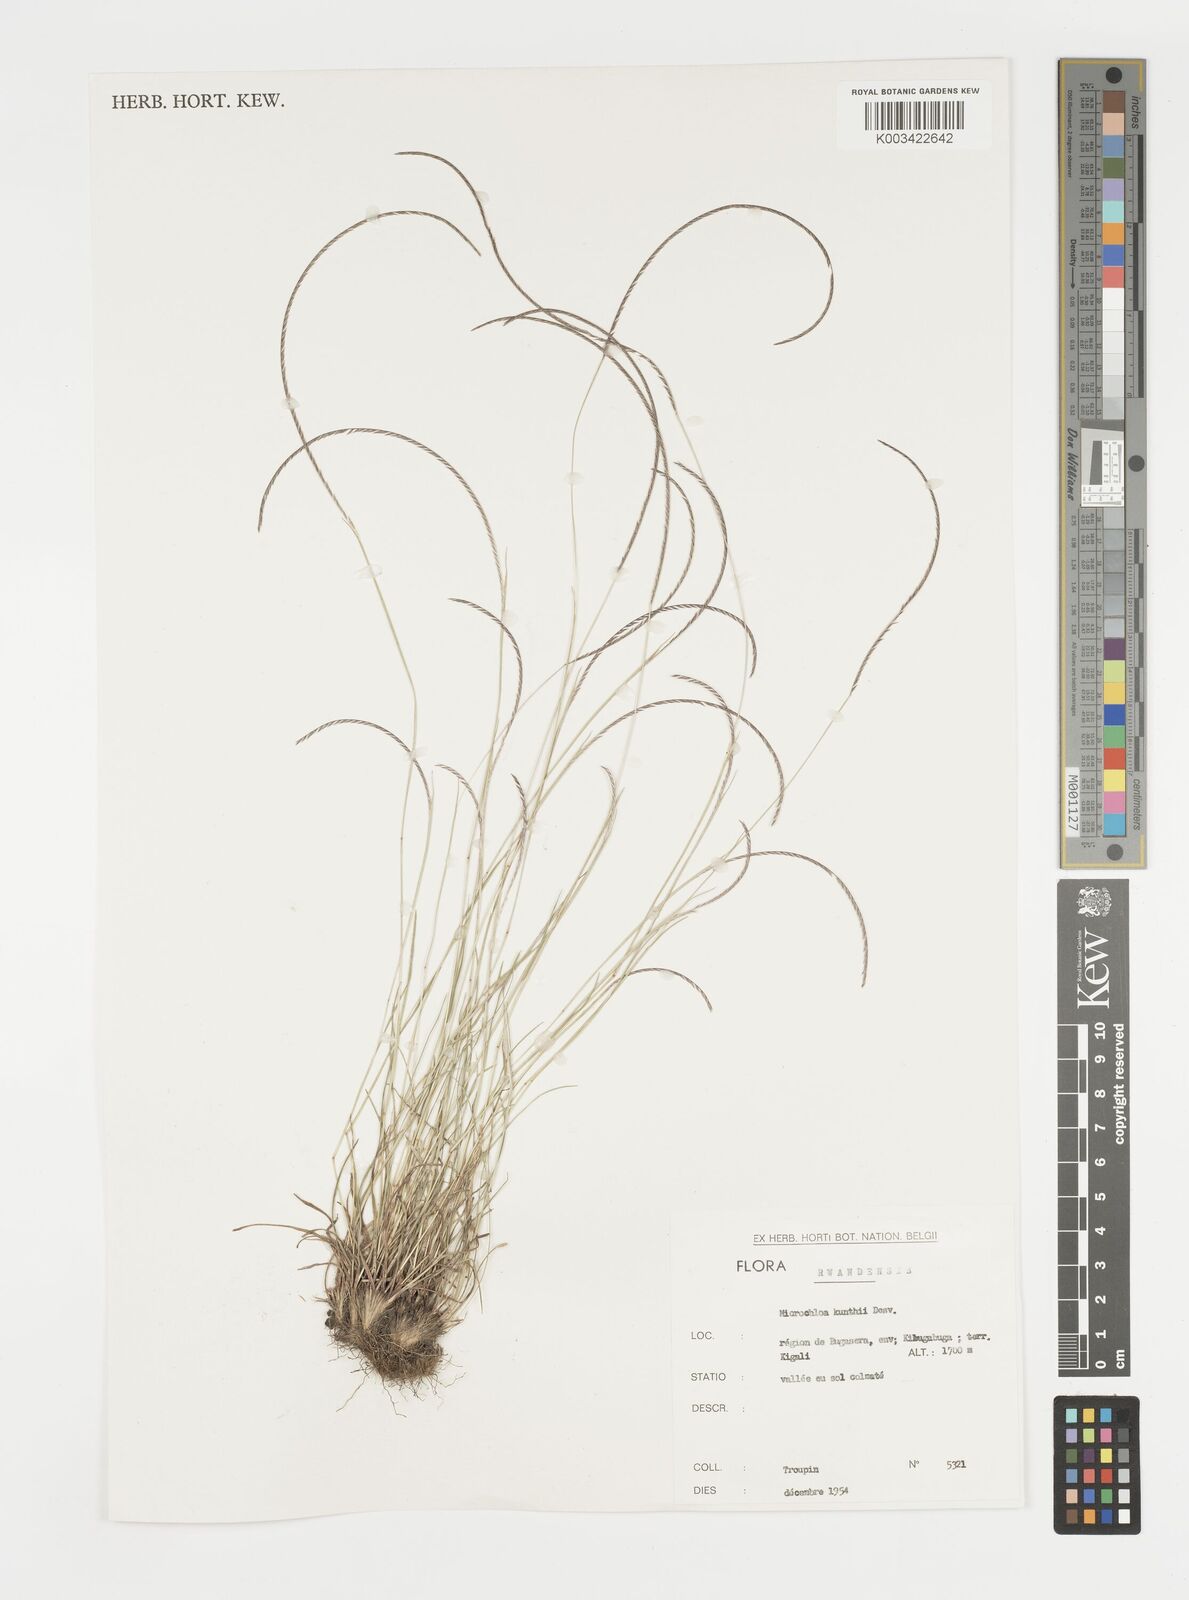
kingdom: Plantae
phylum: Tracheophyta
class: Liliopsida
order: Poales
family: Poaceae
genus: Microchloa
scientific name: Microchloa kunthii
